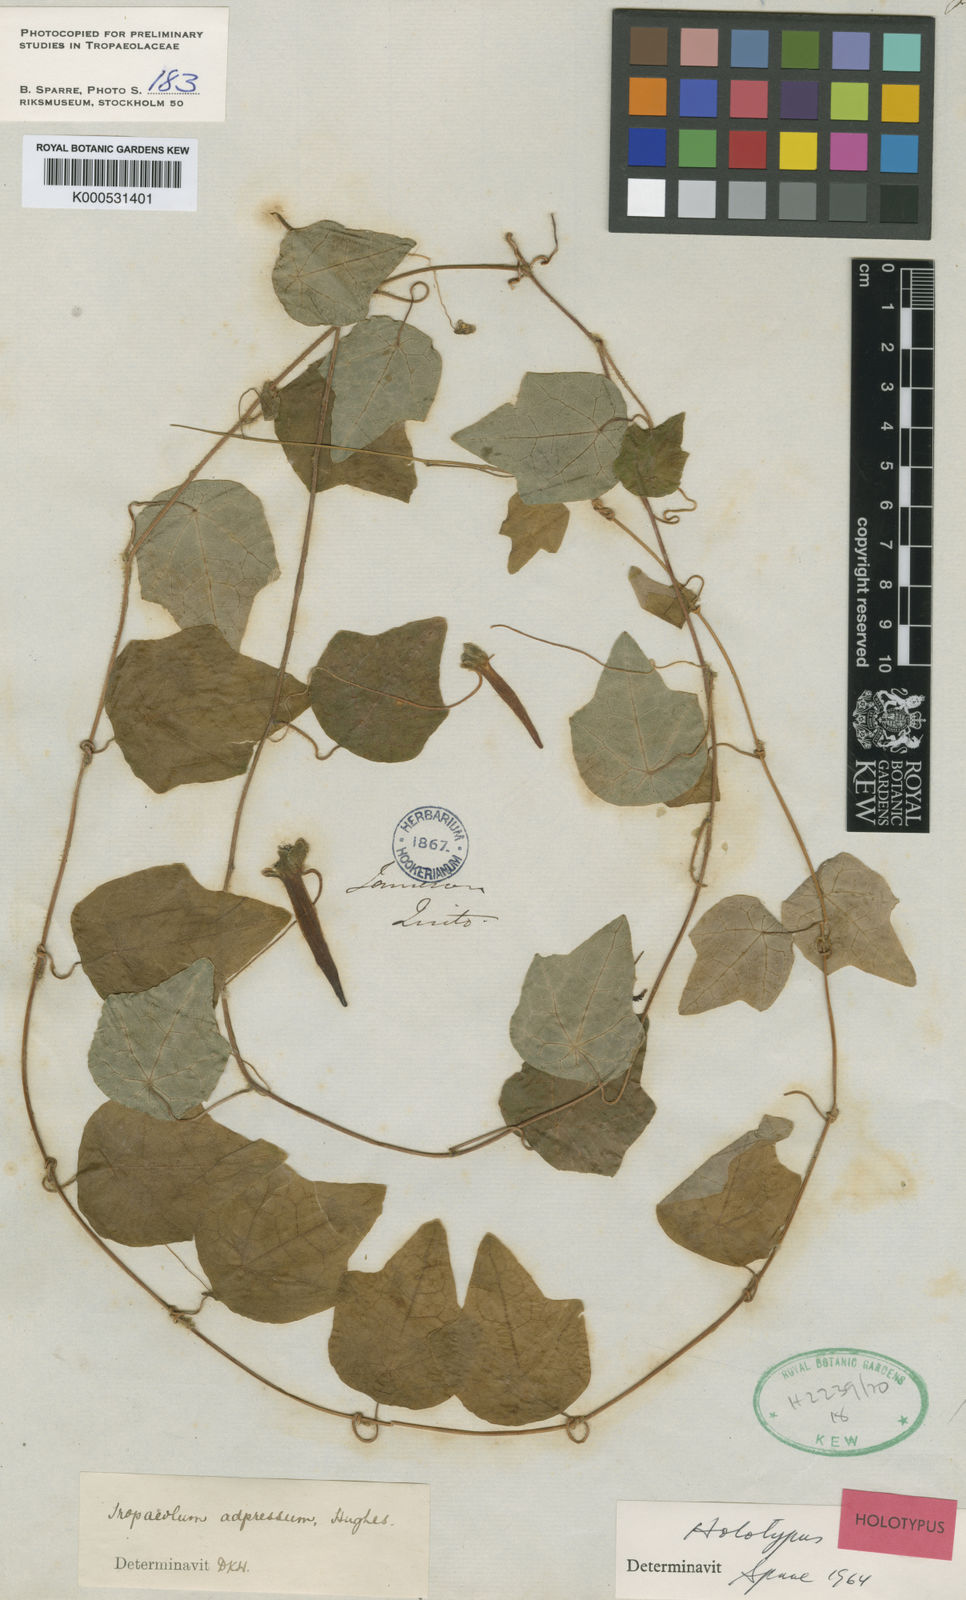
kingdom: Plantae
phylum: Tracheophyta
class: Magnoliopsida
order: Brassicales
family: Tropaeolaceae
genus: Tropaeolum
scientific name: Tropaeolum adpressum
